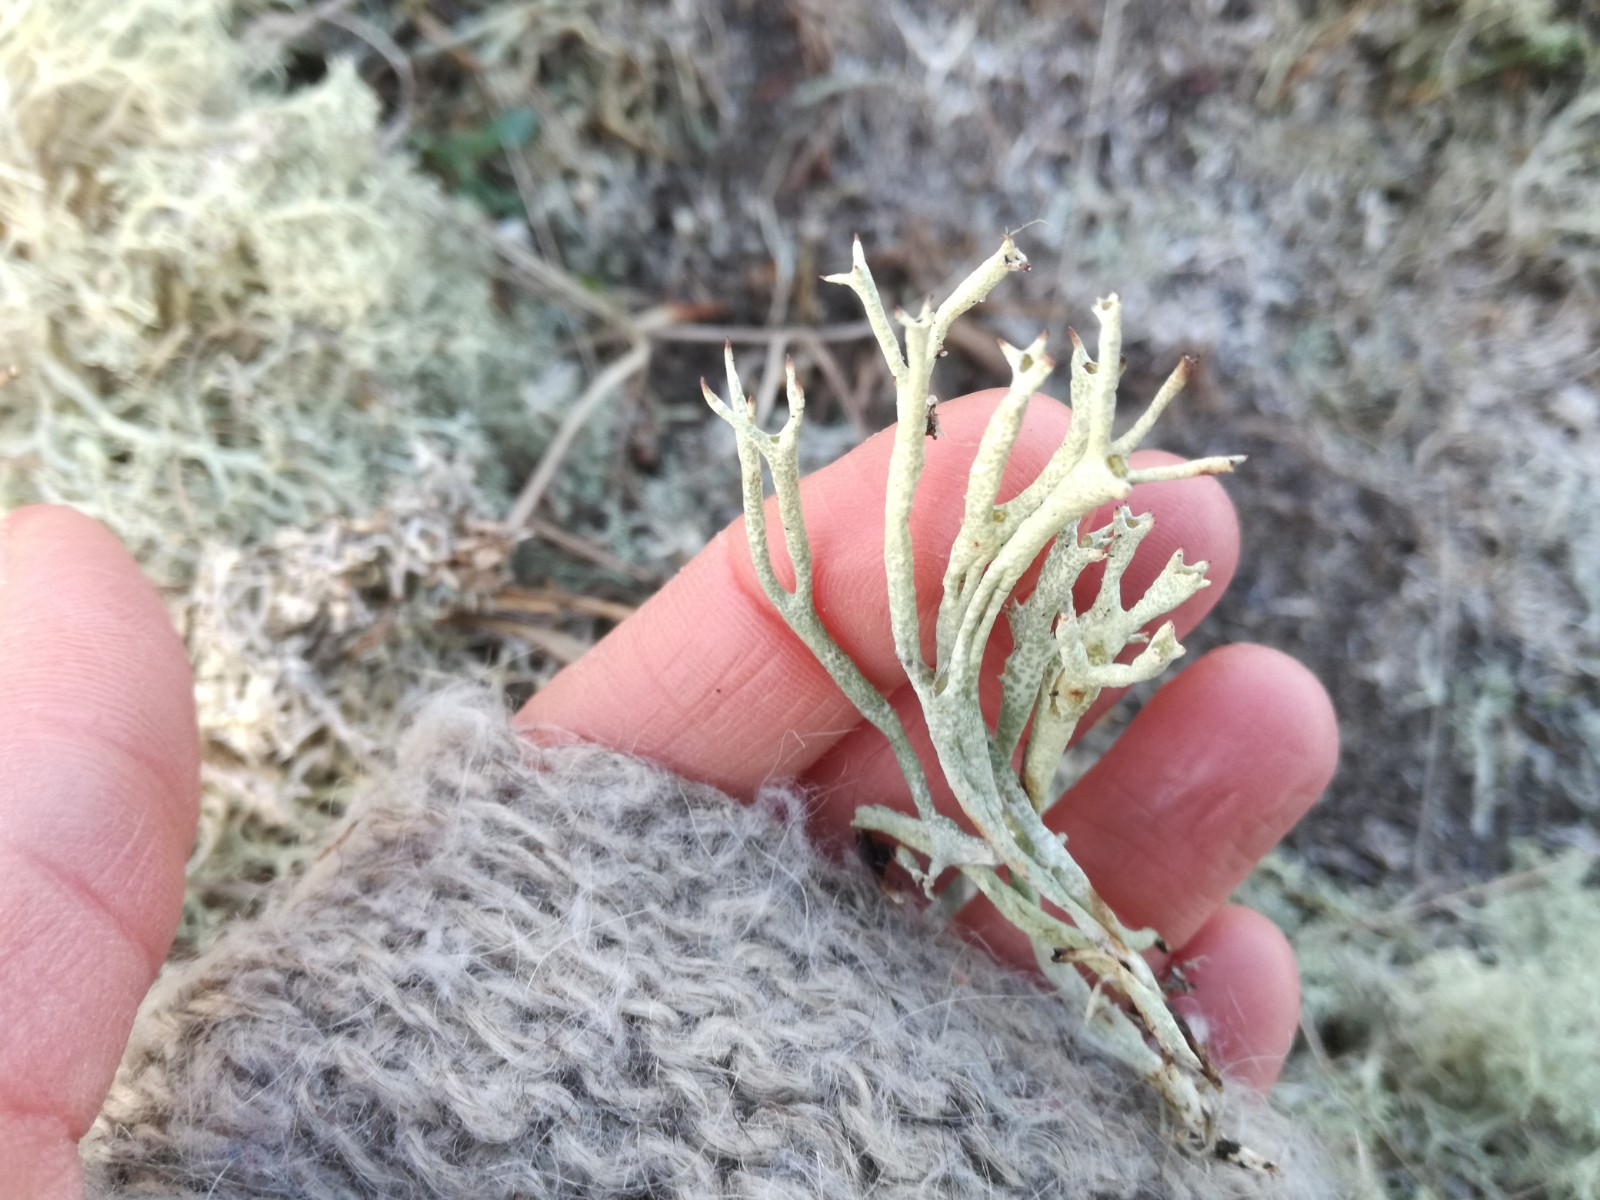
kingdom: Fungi
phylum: Ascomycota
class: Lecanoromycetes
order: Lecanorales
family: Cladoniaceae
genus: Cladonia
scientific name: Cladonia uncialis
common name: pigget bægerlav
